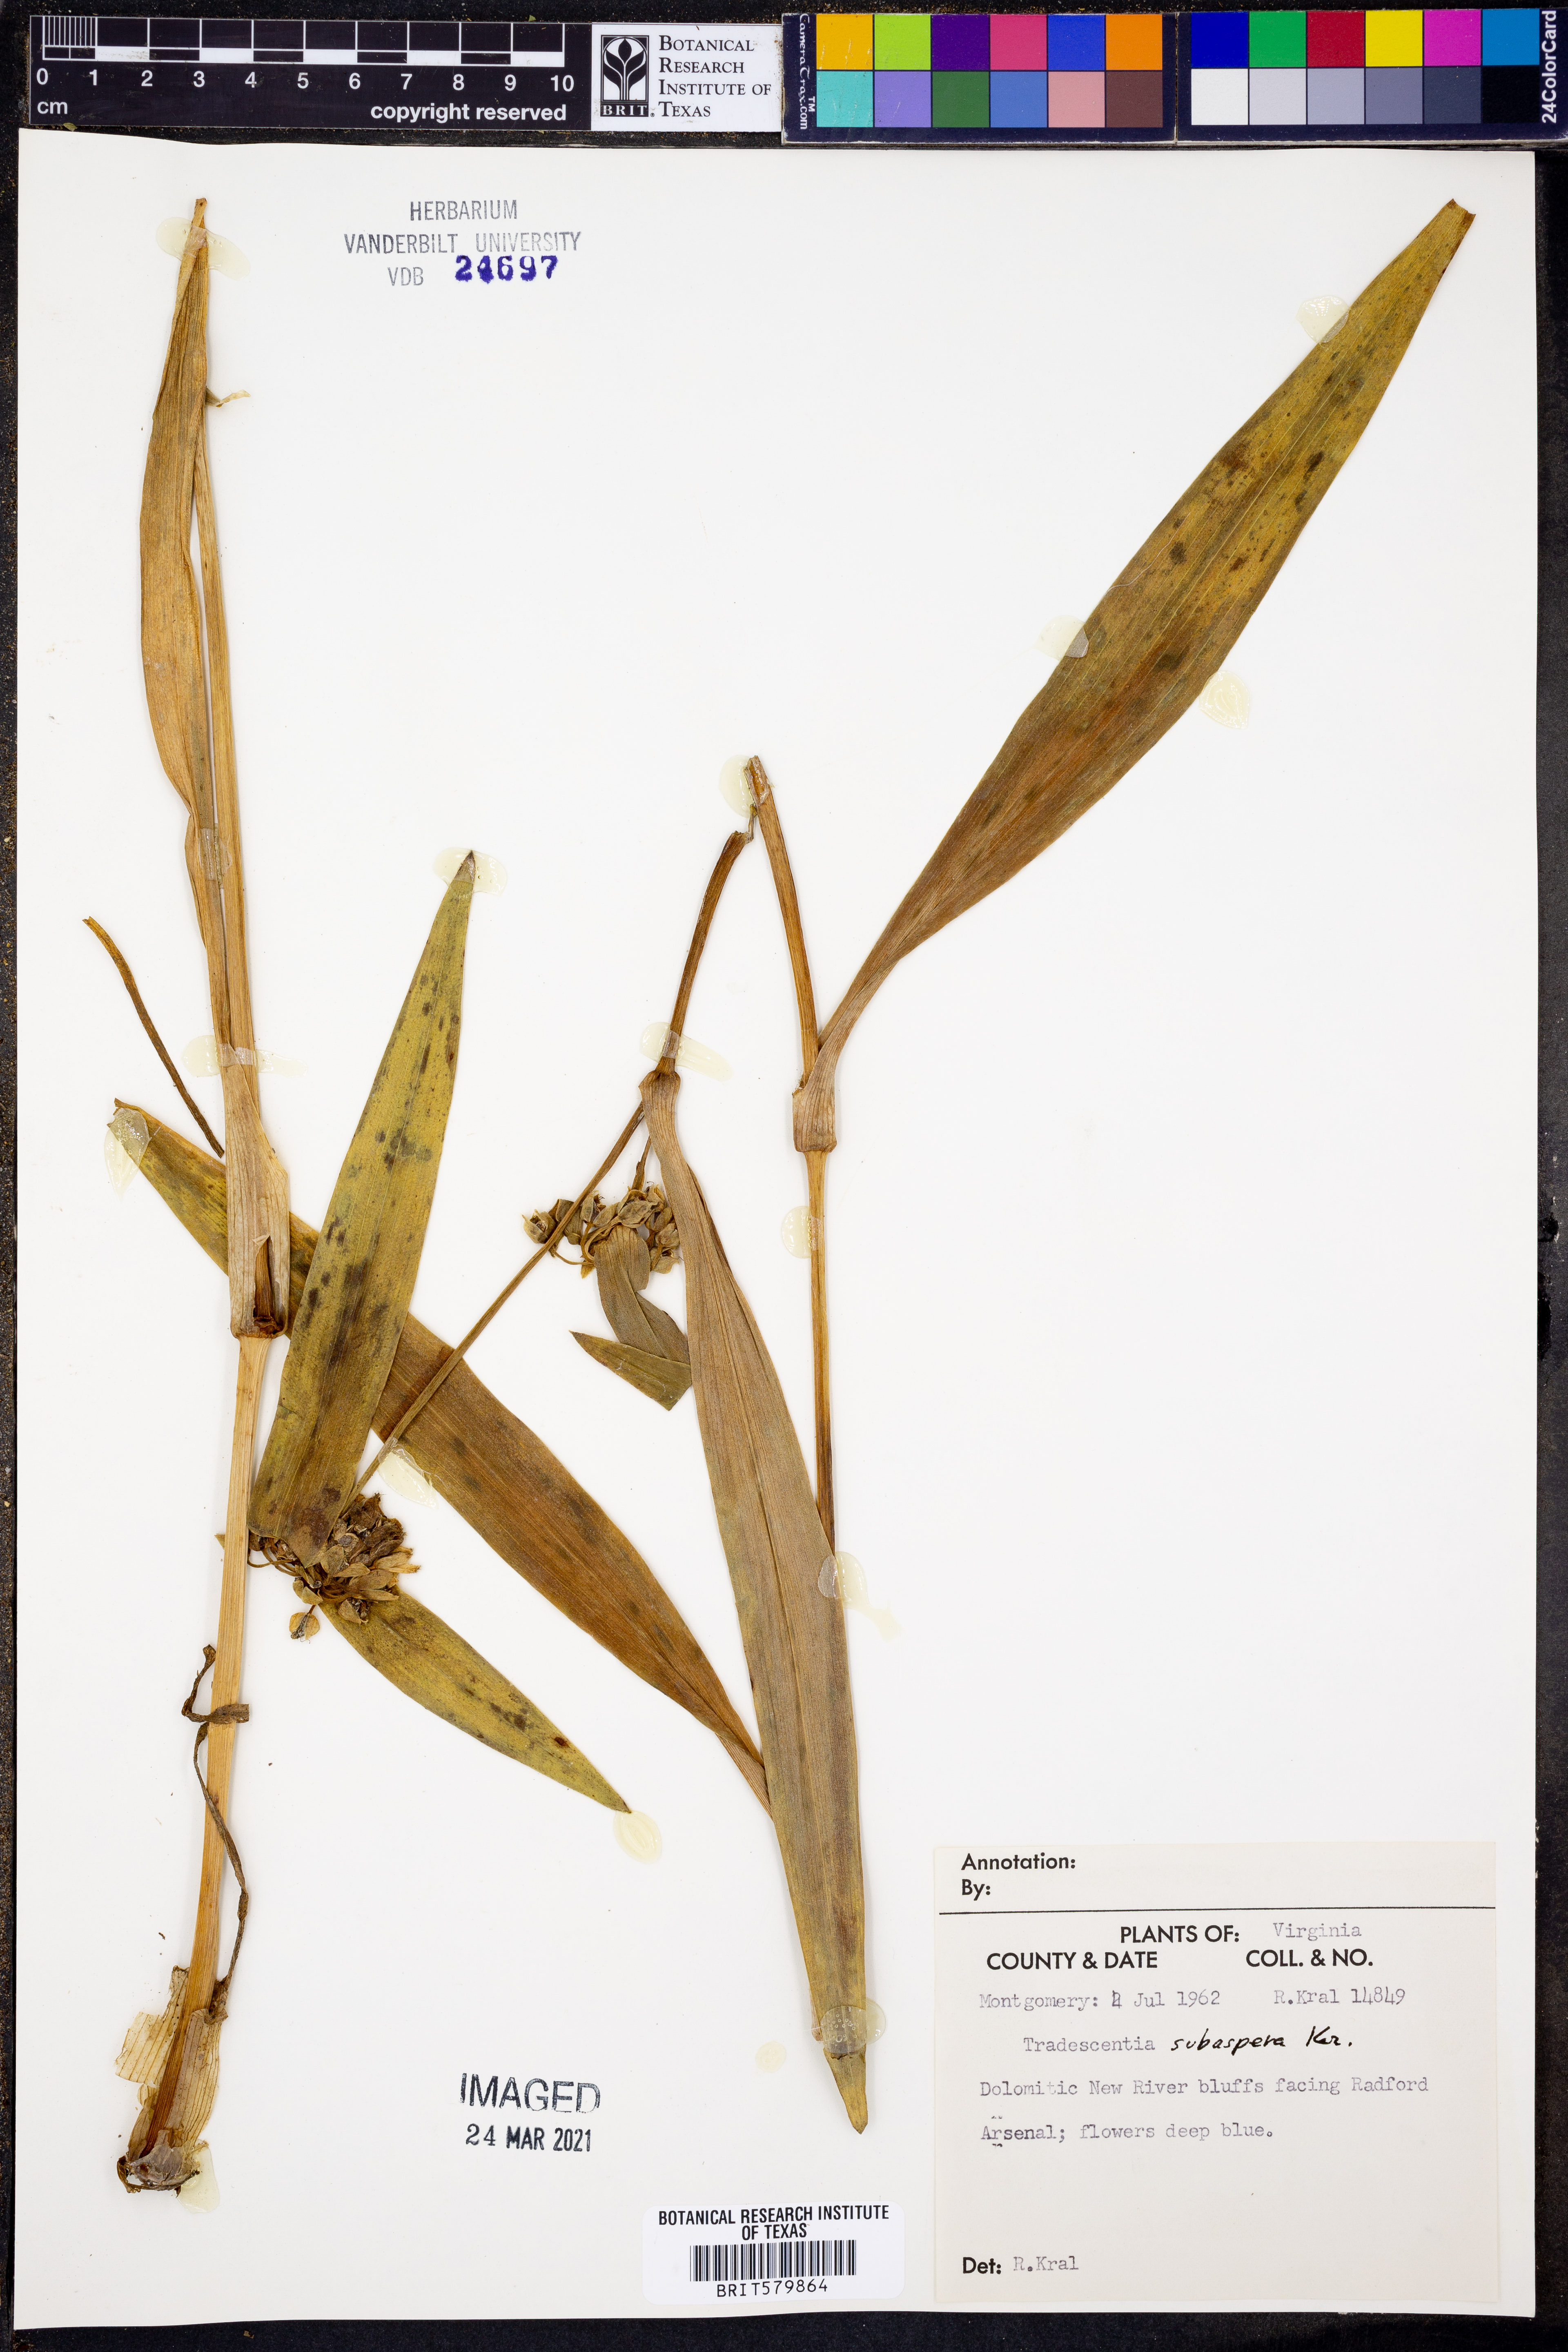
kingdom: Plantae
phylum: Tracheophyta
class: Liliopsida
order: Commelinales
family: Commelinaceae
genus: Tradescantia
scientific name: Tradescantia subaspera
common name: Wide-leaf spiderwort
